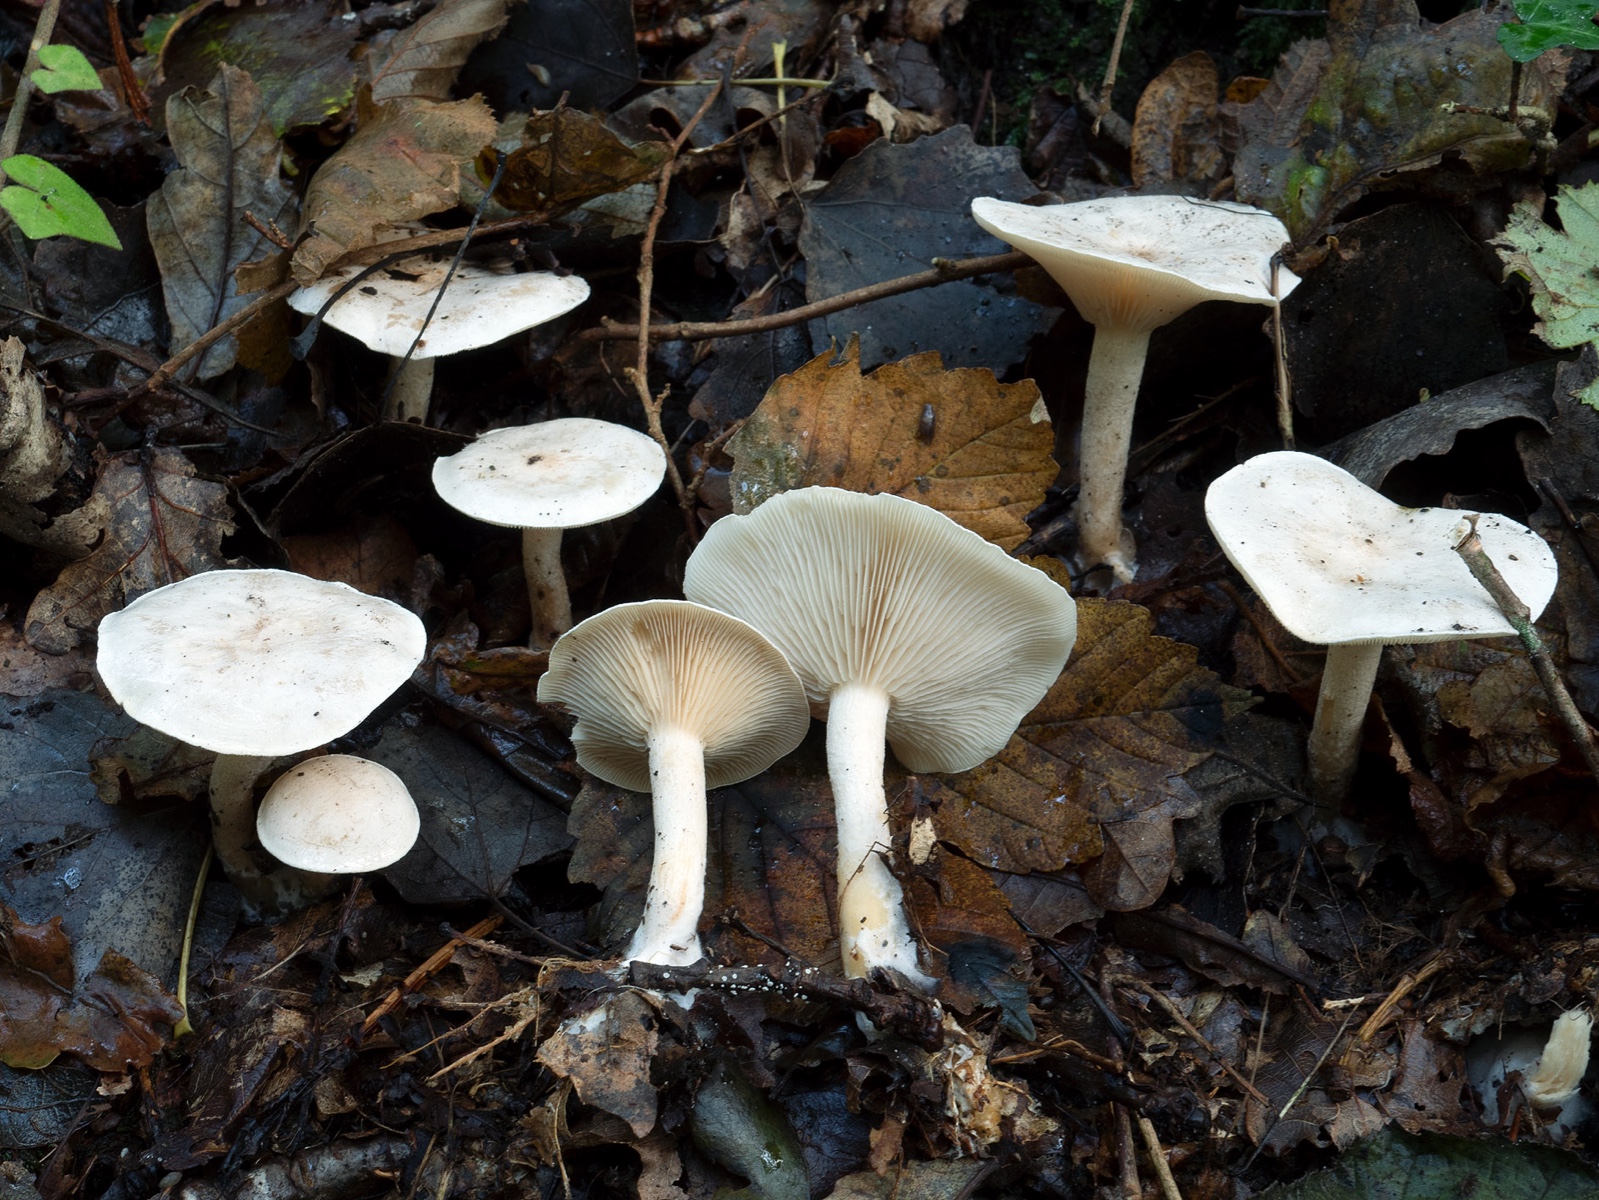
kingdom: Fungi
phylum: Basidiomycota
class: Agaricomycetes
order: Agaricales
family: Tricholomataceae
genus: Clitocybe
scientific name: Clitocybe phyllophila
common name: løv-tragthat
